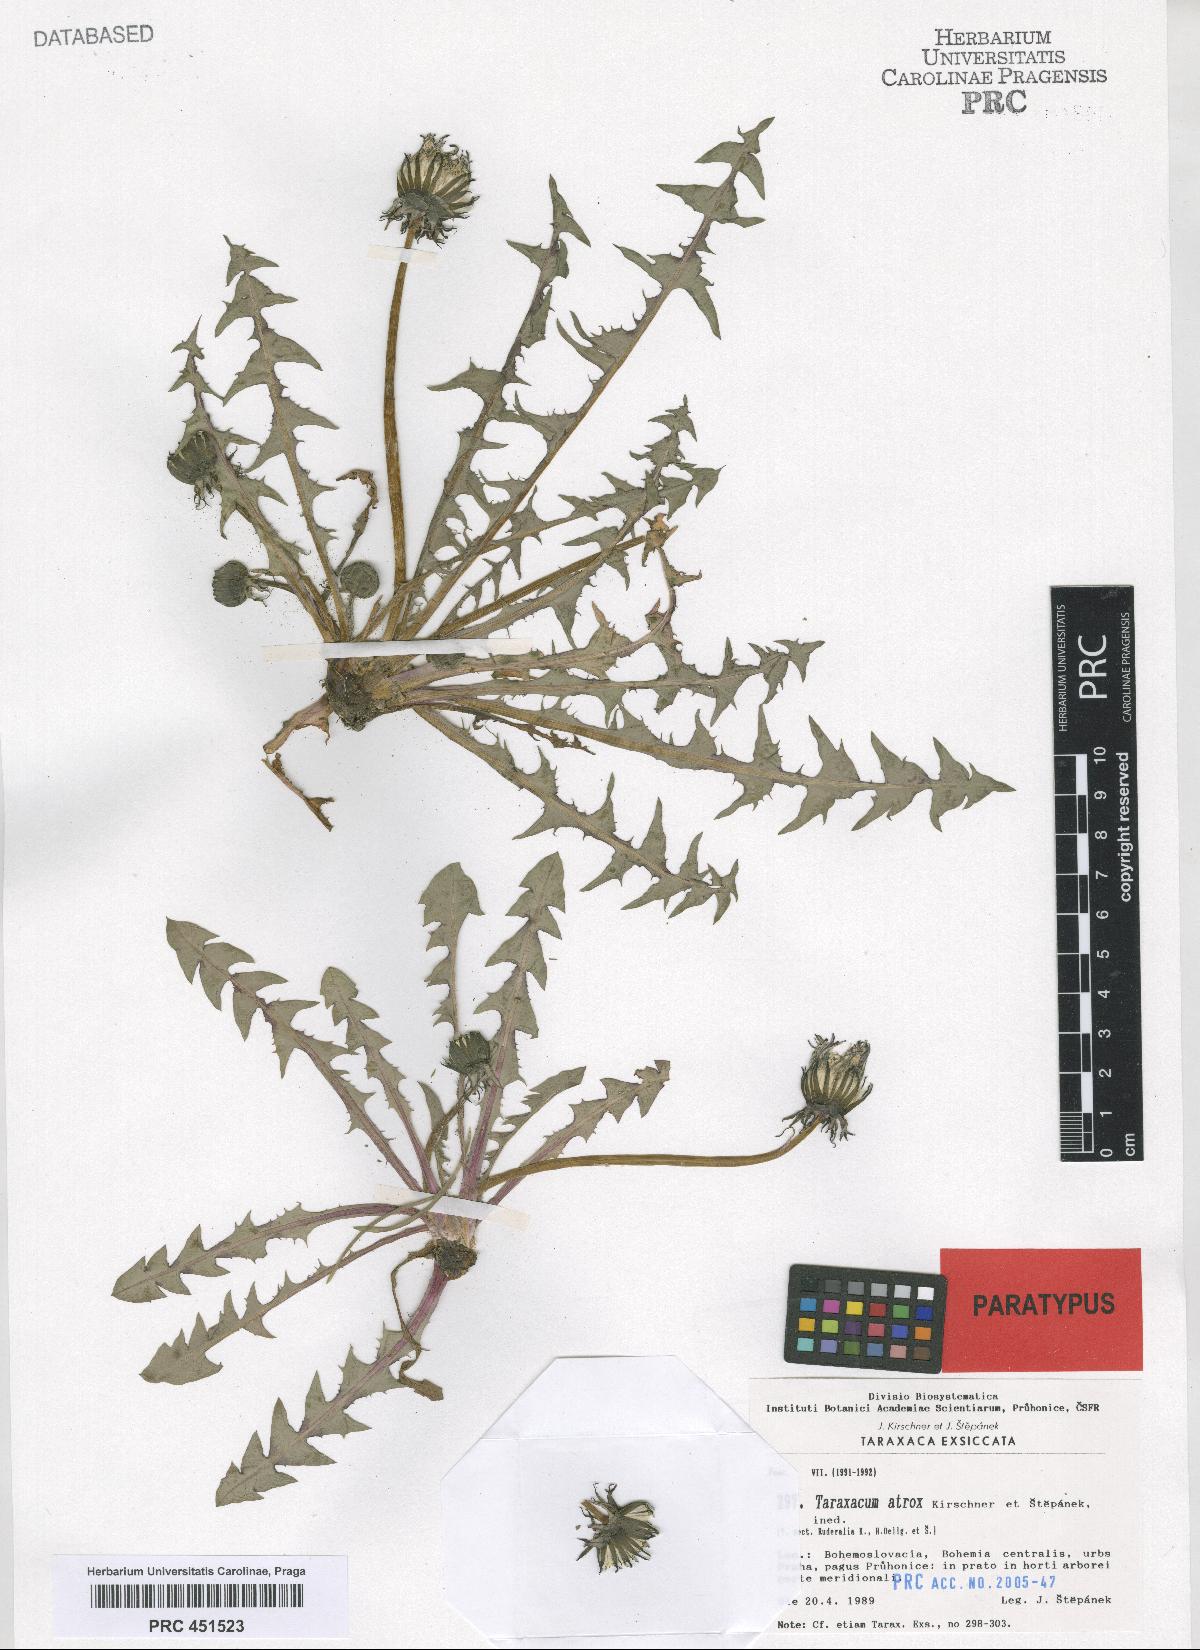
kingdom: Plantae
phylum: Tracheophyta
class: Magnoliopsida
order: Asterales
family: Asteraceae
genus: Taraxacum
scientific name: Taraxacum atrox
